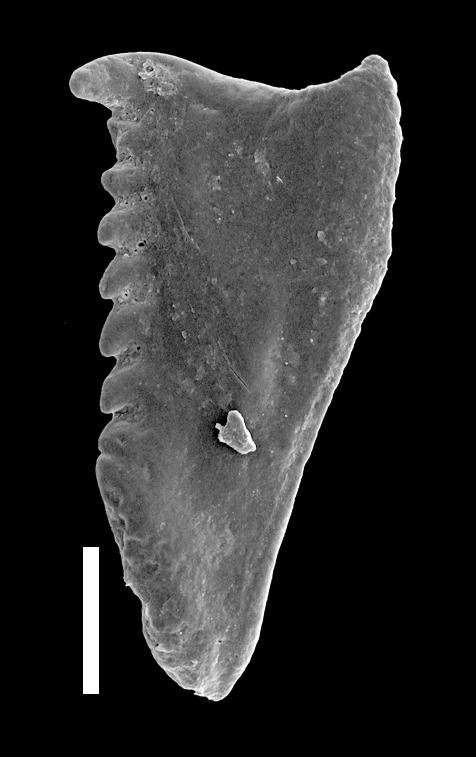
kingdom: Animalia
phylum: Annelida
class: Polychaeta
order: Eunicida
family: Polychaetaspidae
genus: Oenonites
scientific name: Oenonites
